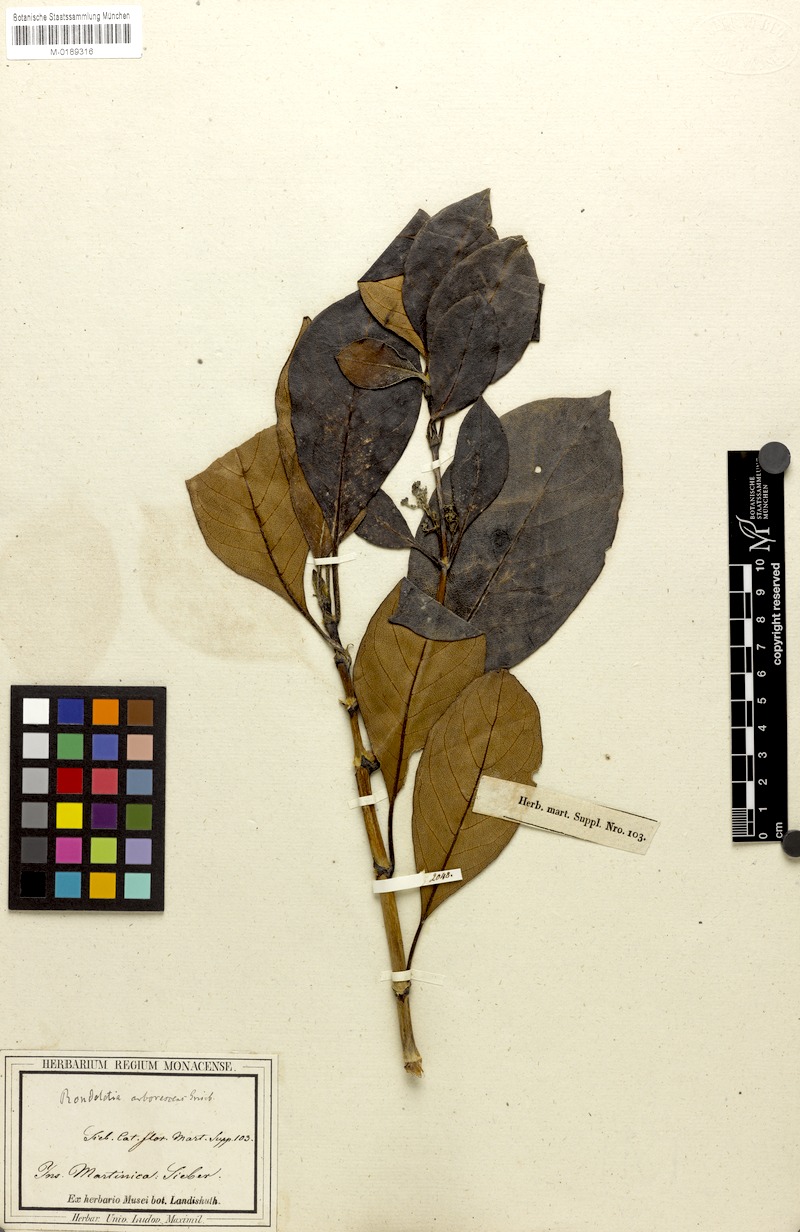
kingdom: Plantae
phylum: Tracheophyta
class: Magnoliopsida
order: Gentianales
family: Rubiaceae
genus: Rondeletia
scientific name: Rondeletia parviflora
